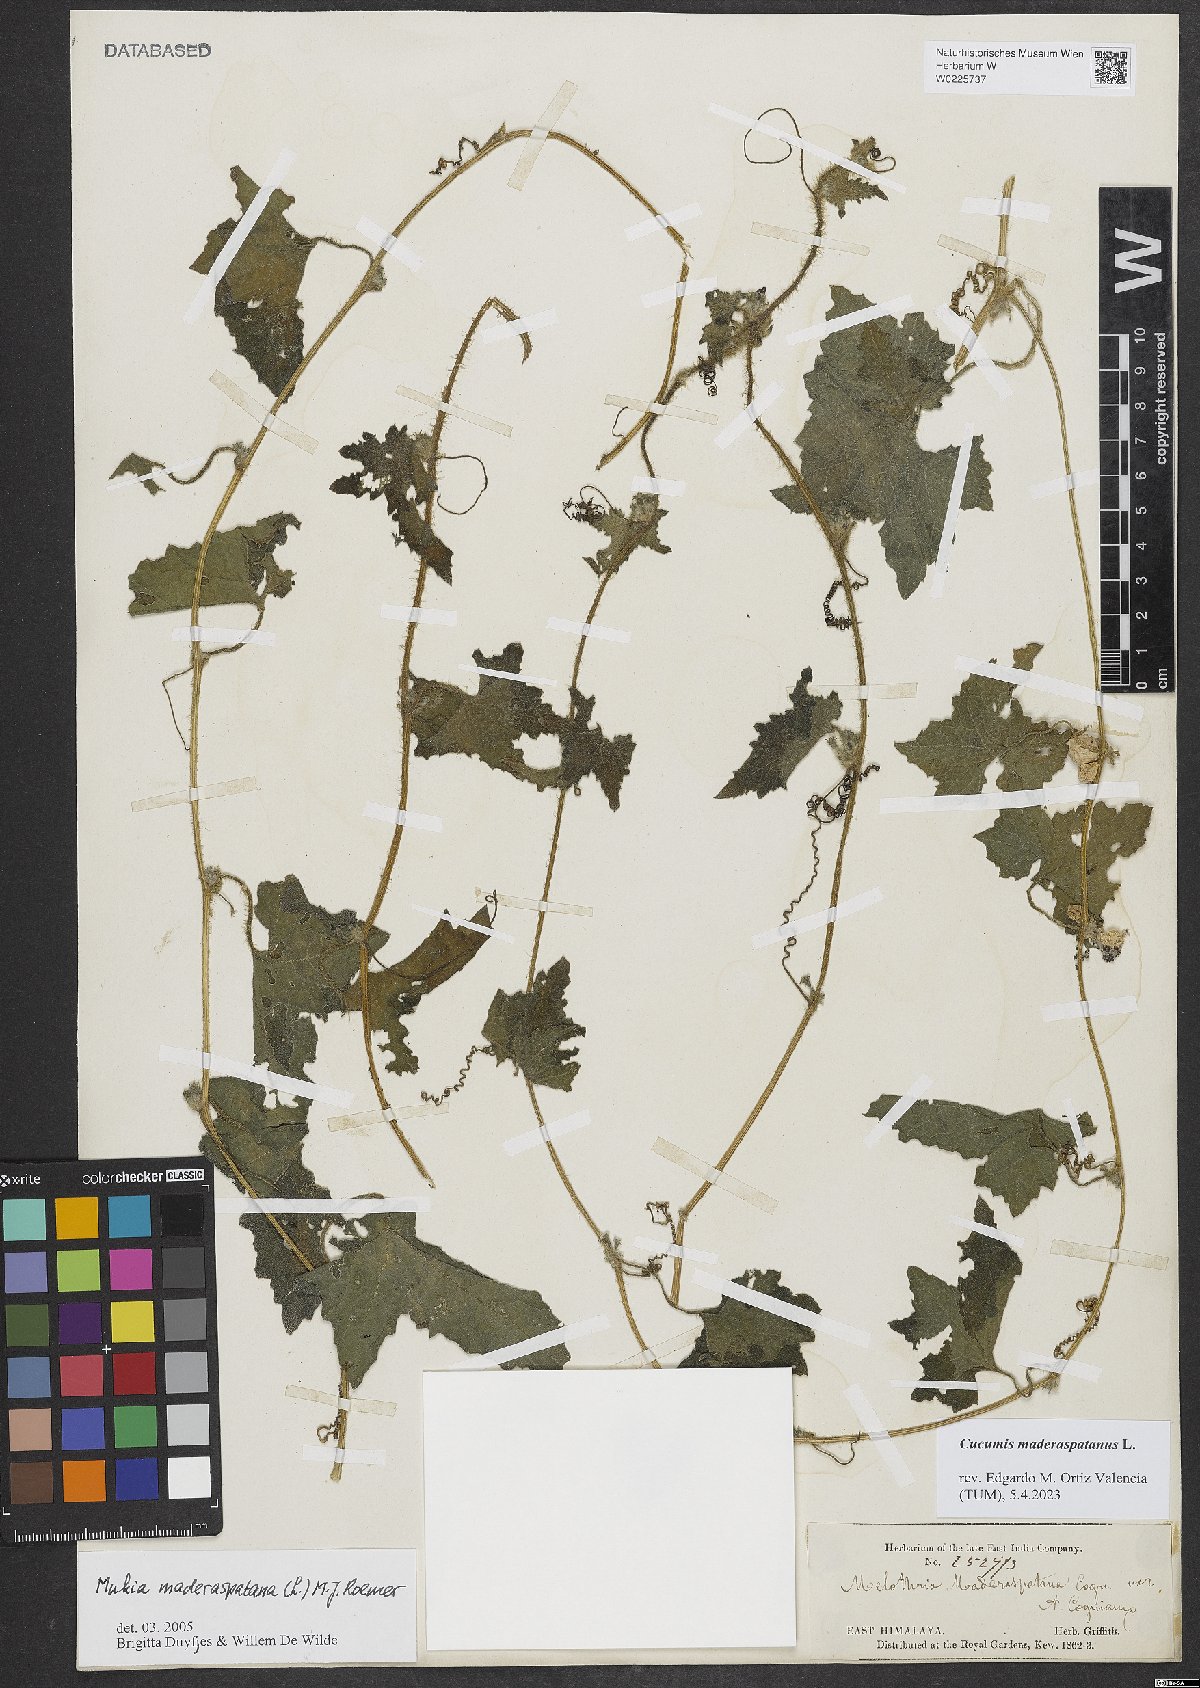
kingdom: Plantae
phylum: Tracheophyta
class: Magnoliopsida
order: Cucurbitales
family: Cucurbitaceae
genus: Cucumis
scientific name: Cucumis maderaspatanus
